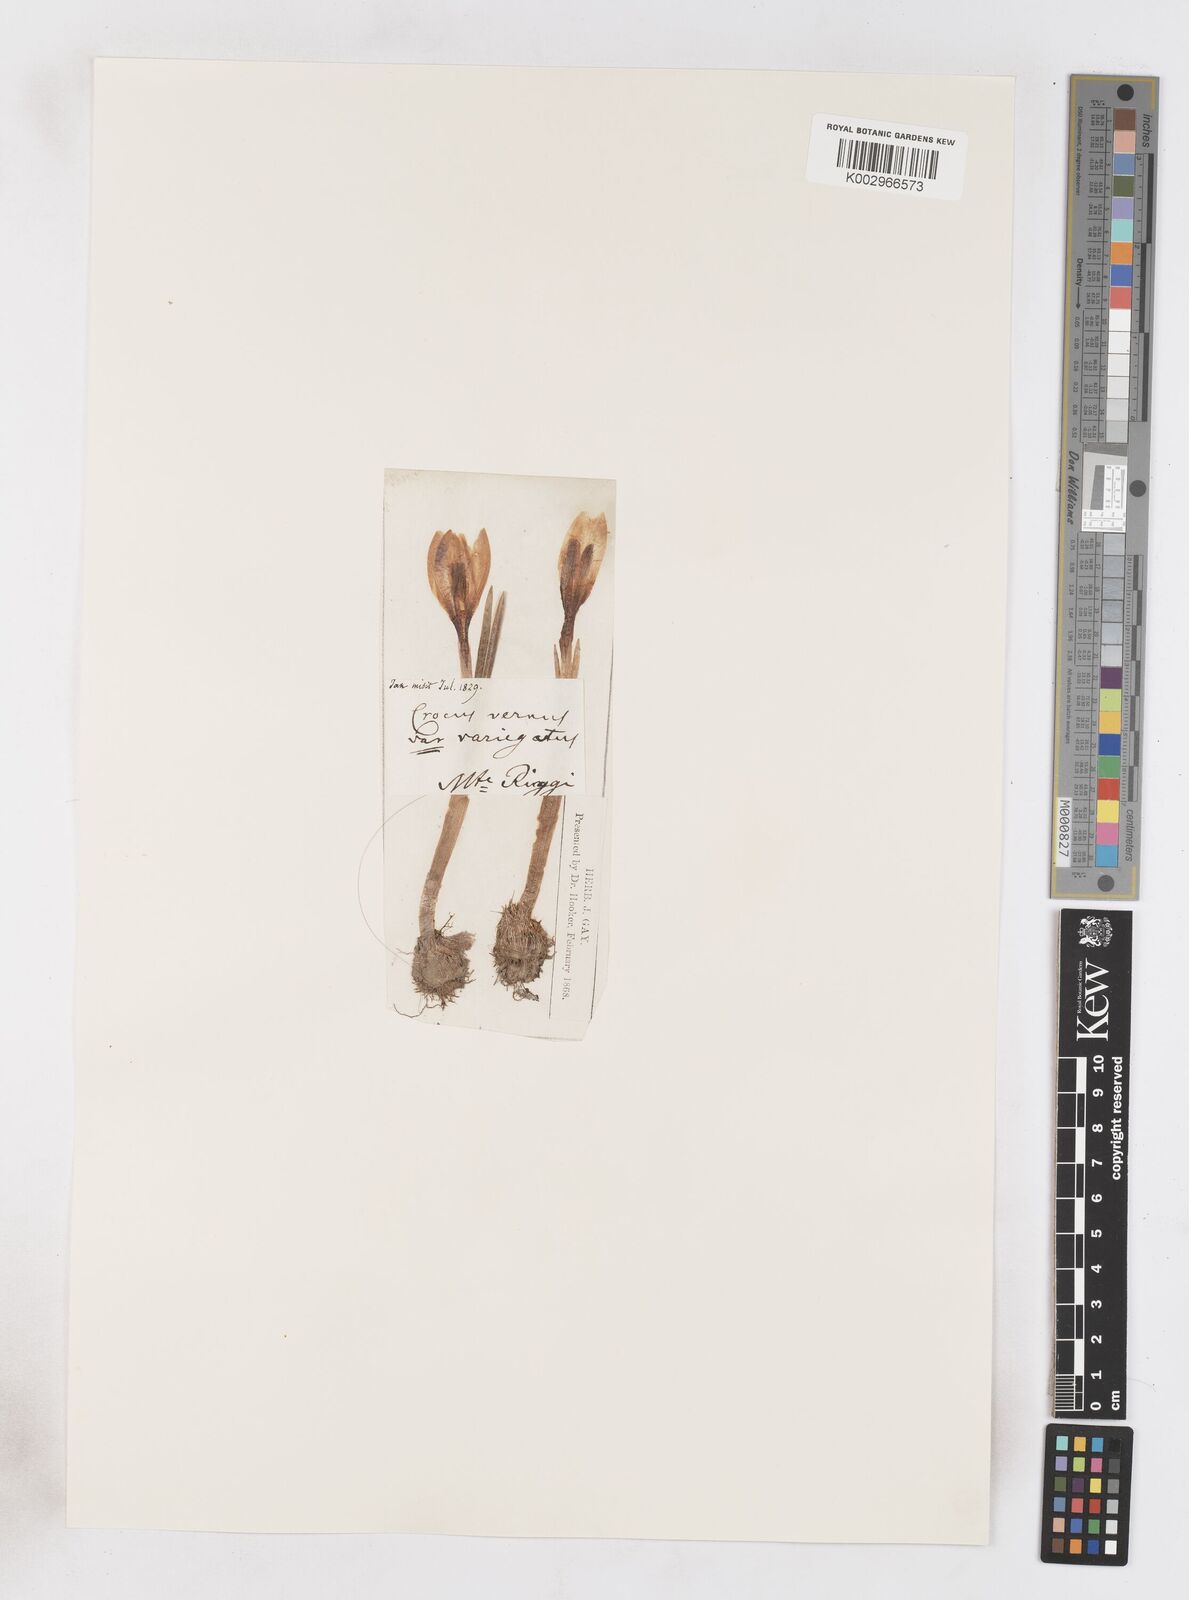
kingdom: Plantae
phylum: Tracheophyta
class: Liliopsida
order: Asparagales
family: Iridaceae
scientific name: Iridaceae
